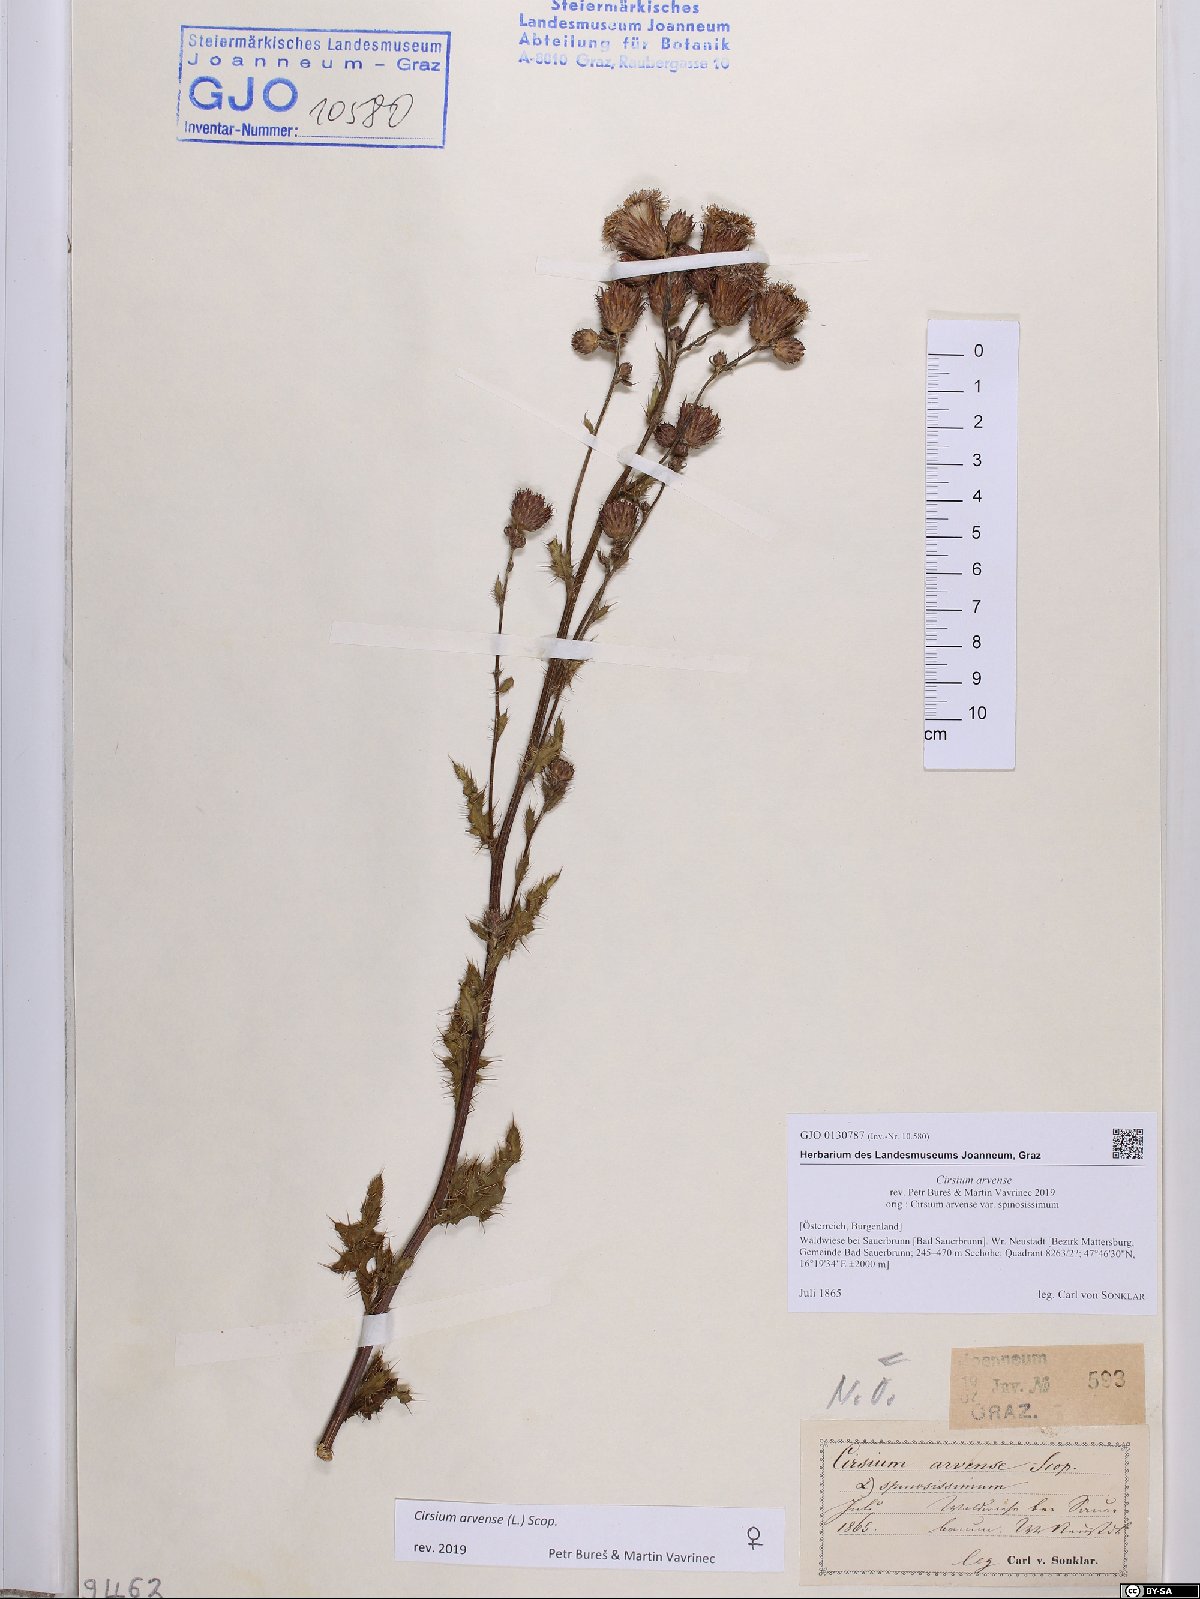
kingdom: Plantae
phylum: Tracheophyta
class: Magnoliopsida
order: Asterales
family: Asteraceae
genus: Cirsium
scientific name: Cirsium arvense
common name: Creeping thistle
